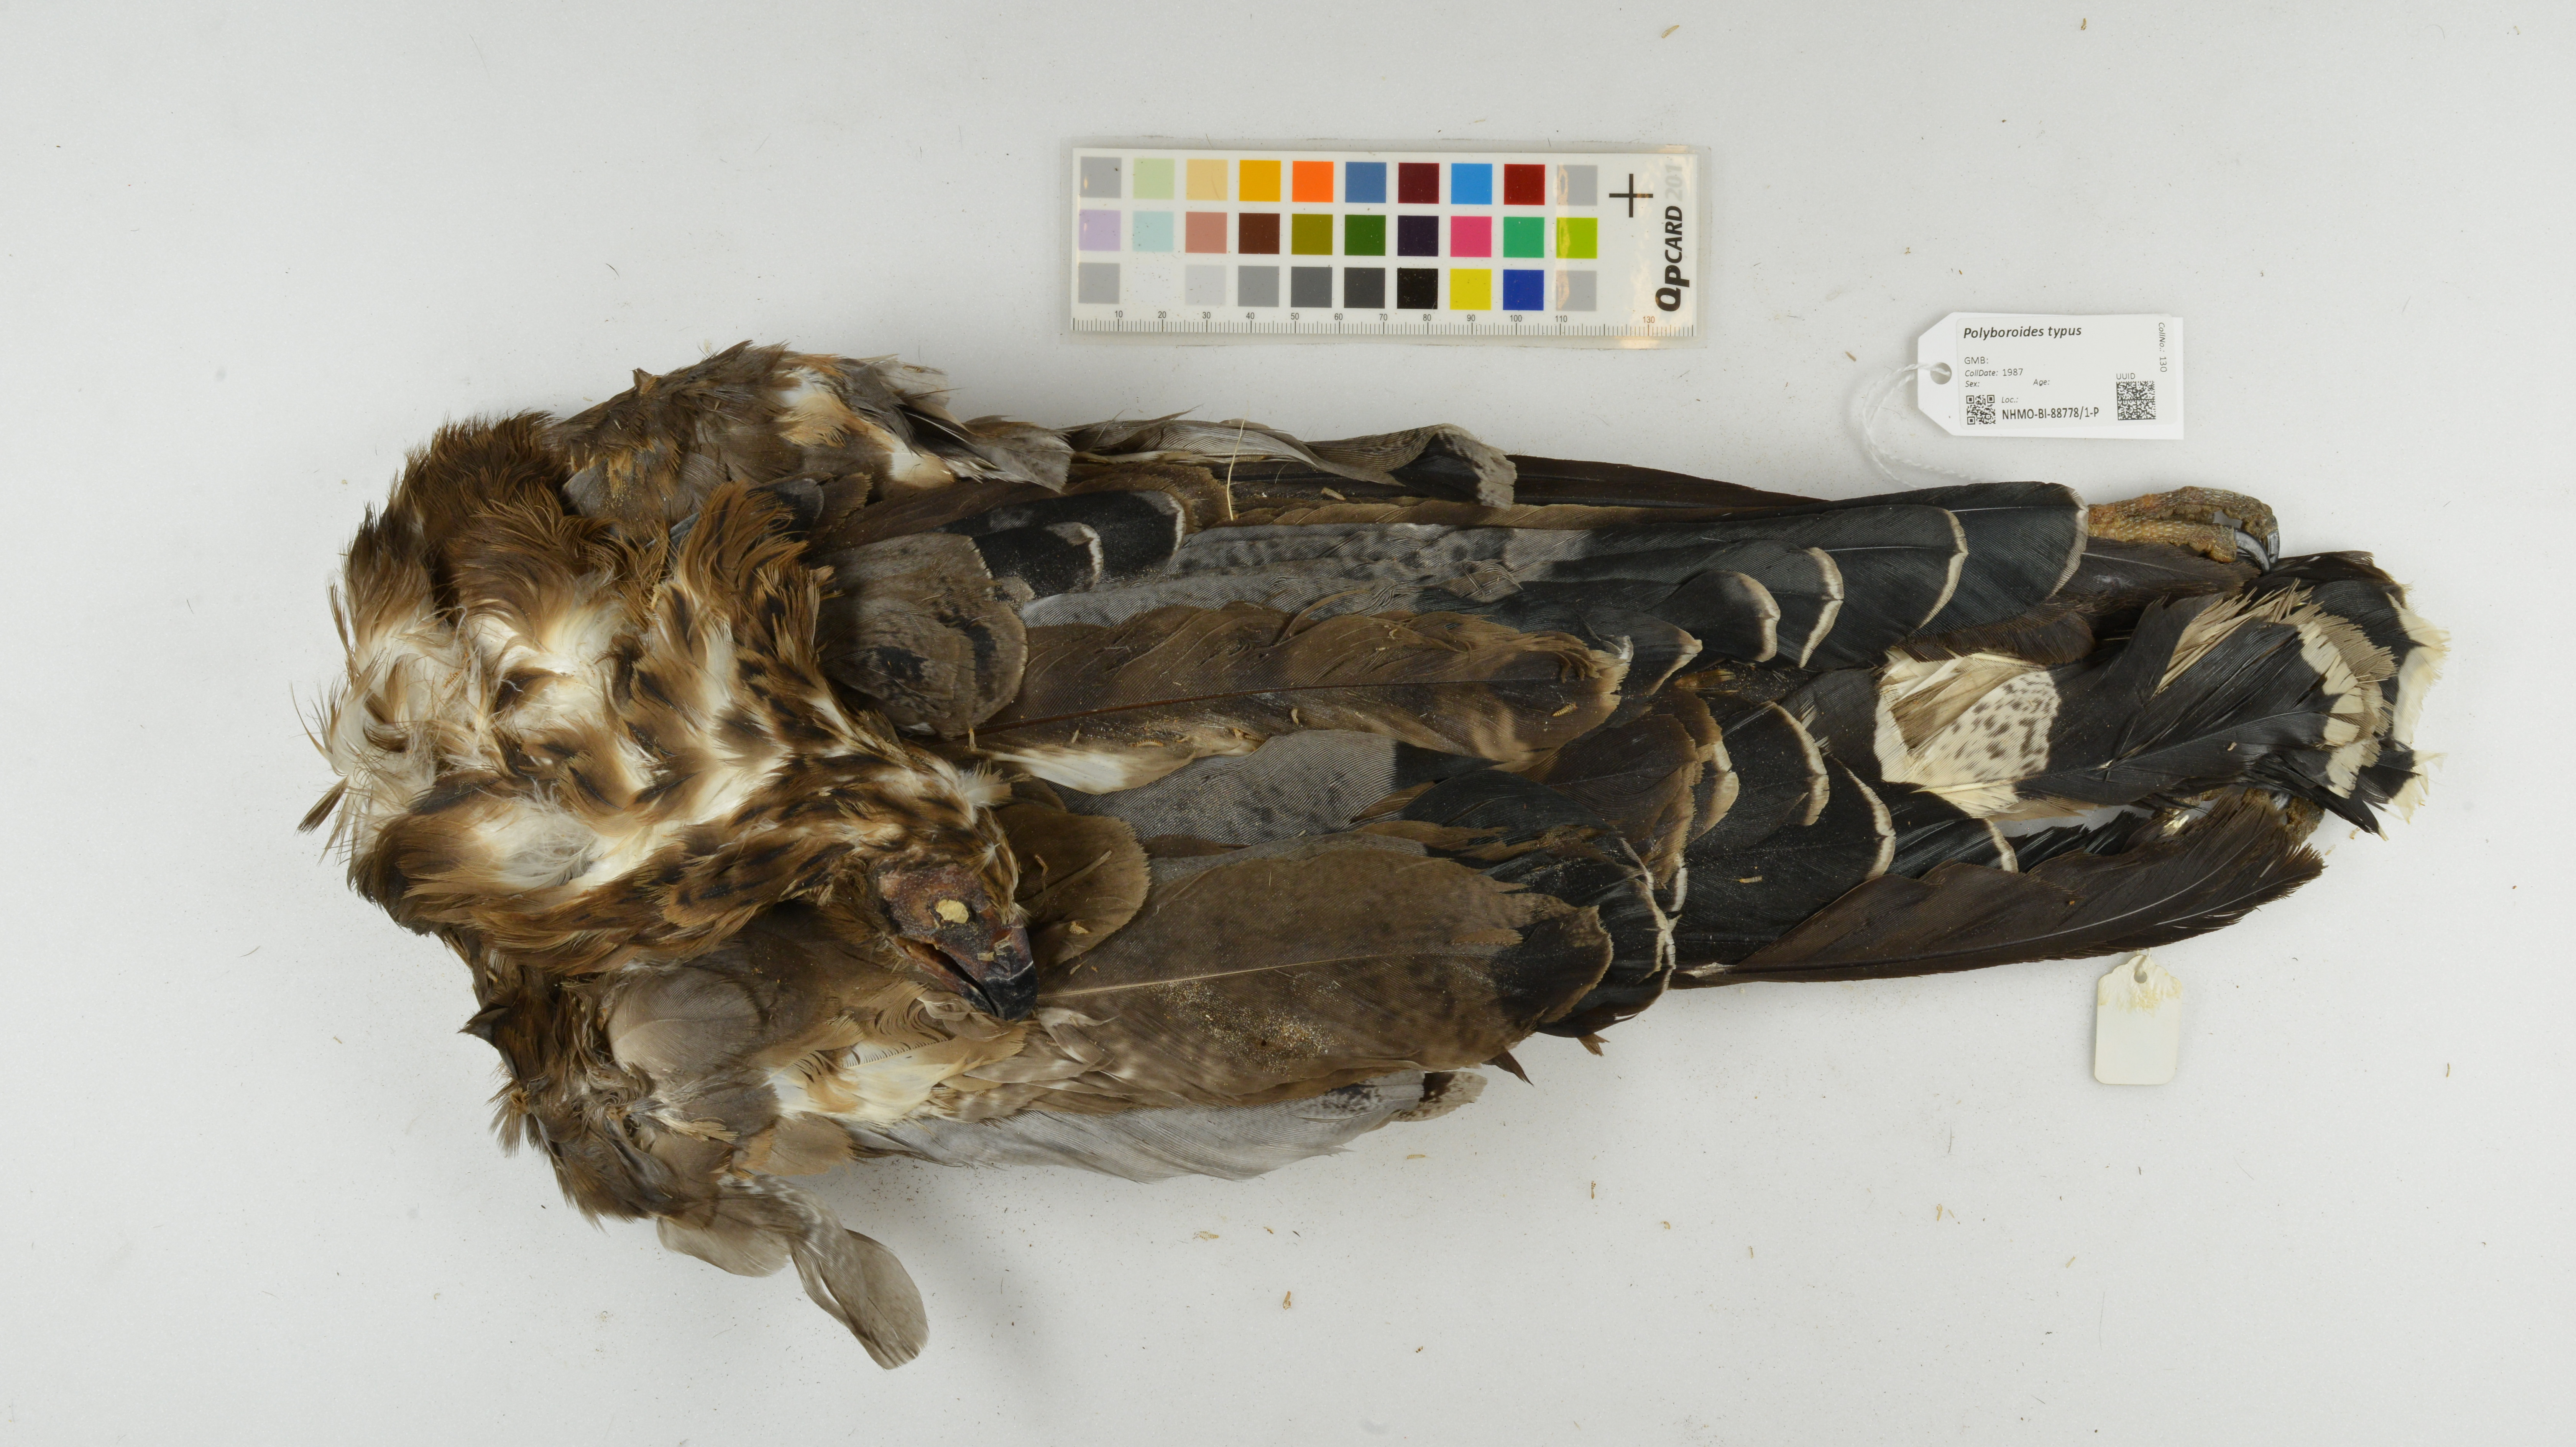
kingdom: Animalia
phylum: Chordata
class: Aves
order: Accipitriformes
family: Accipitridae
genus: Polyboroides
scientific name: Polyboroides typus
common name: African harrier-hawk
